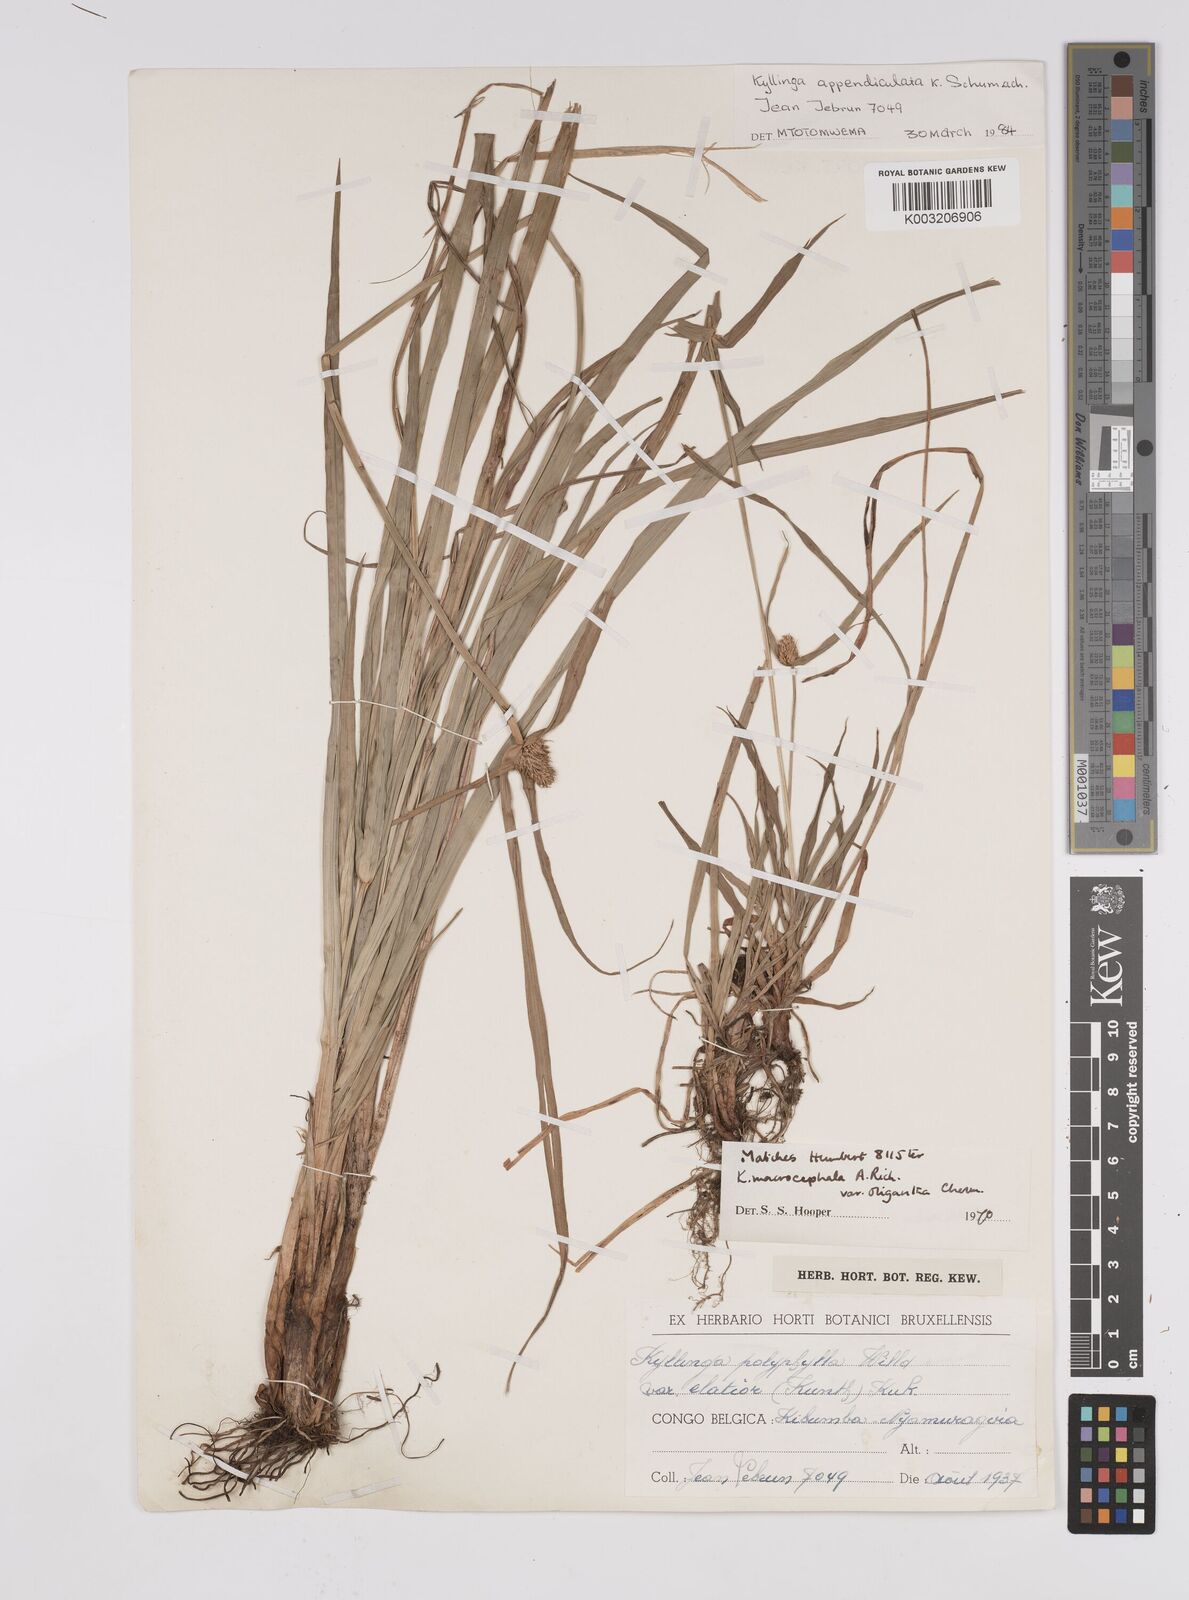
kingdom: Plantae
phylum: Tracheophyta
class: Liliopsida
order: Poales
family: Cyperaceae
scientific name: Cyperaceae
